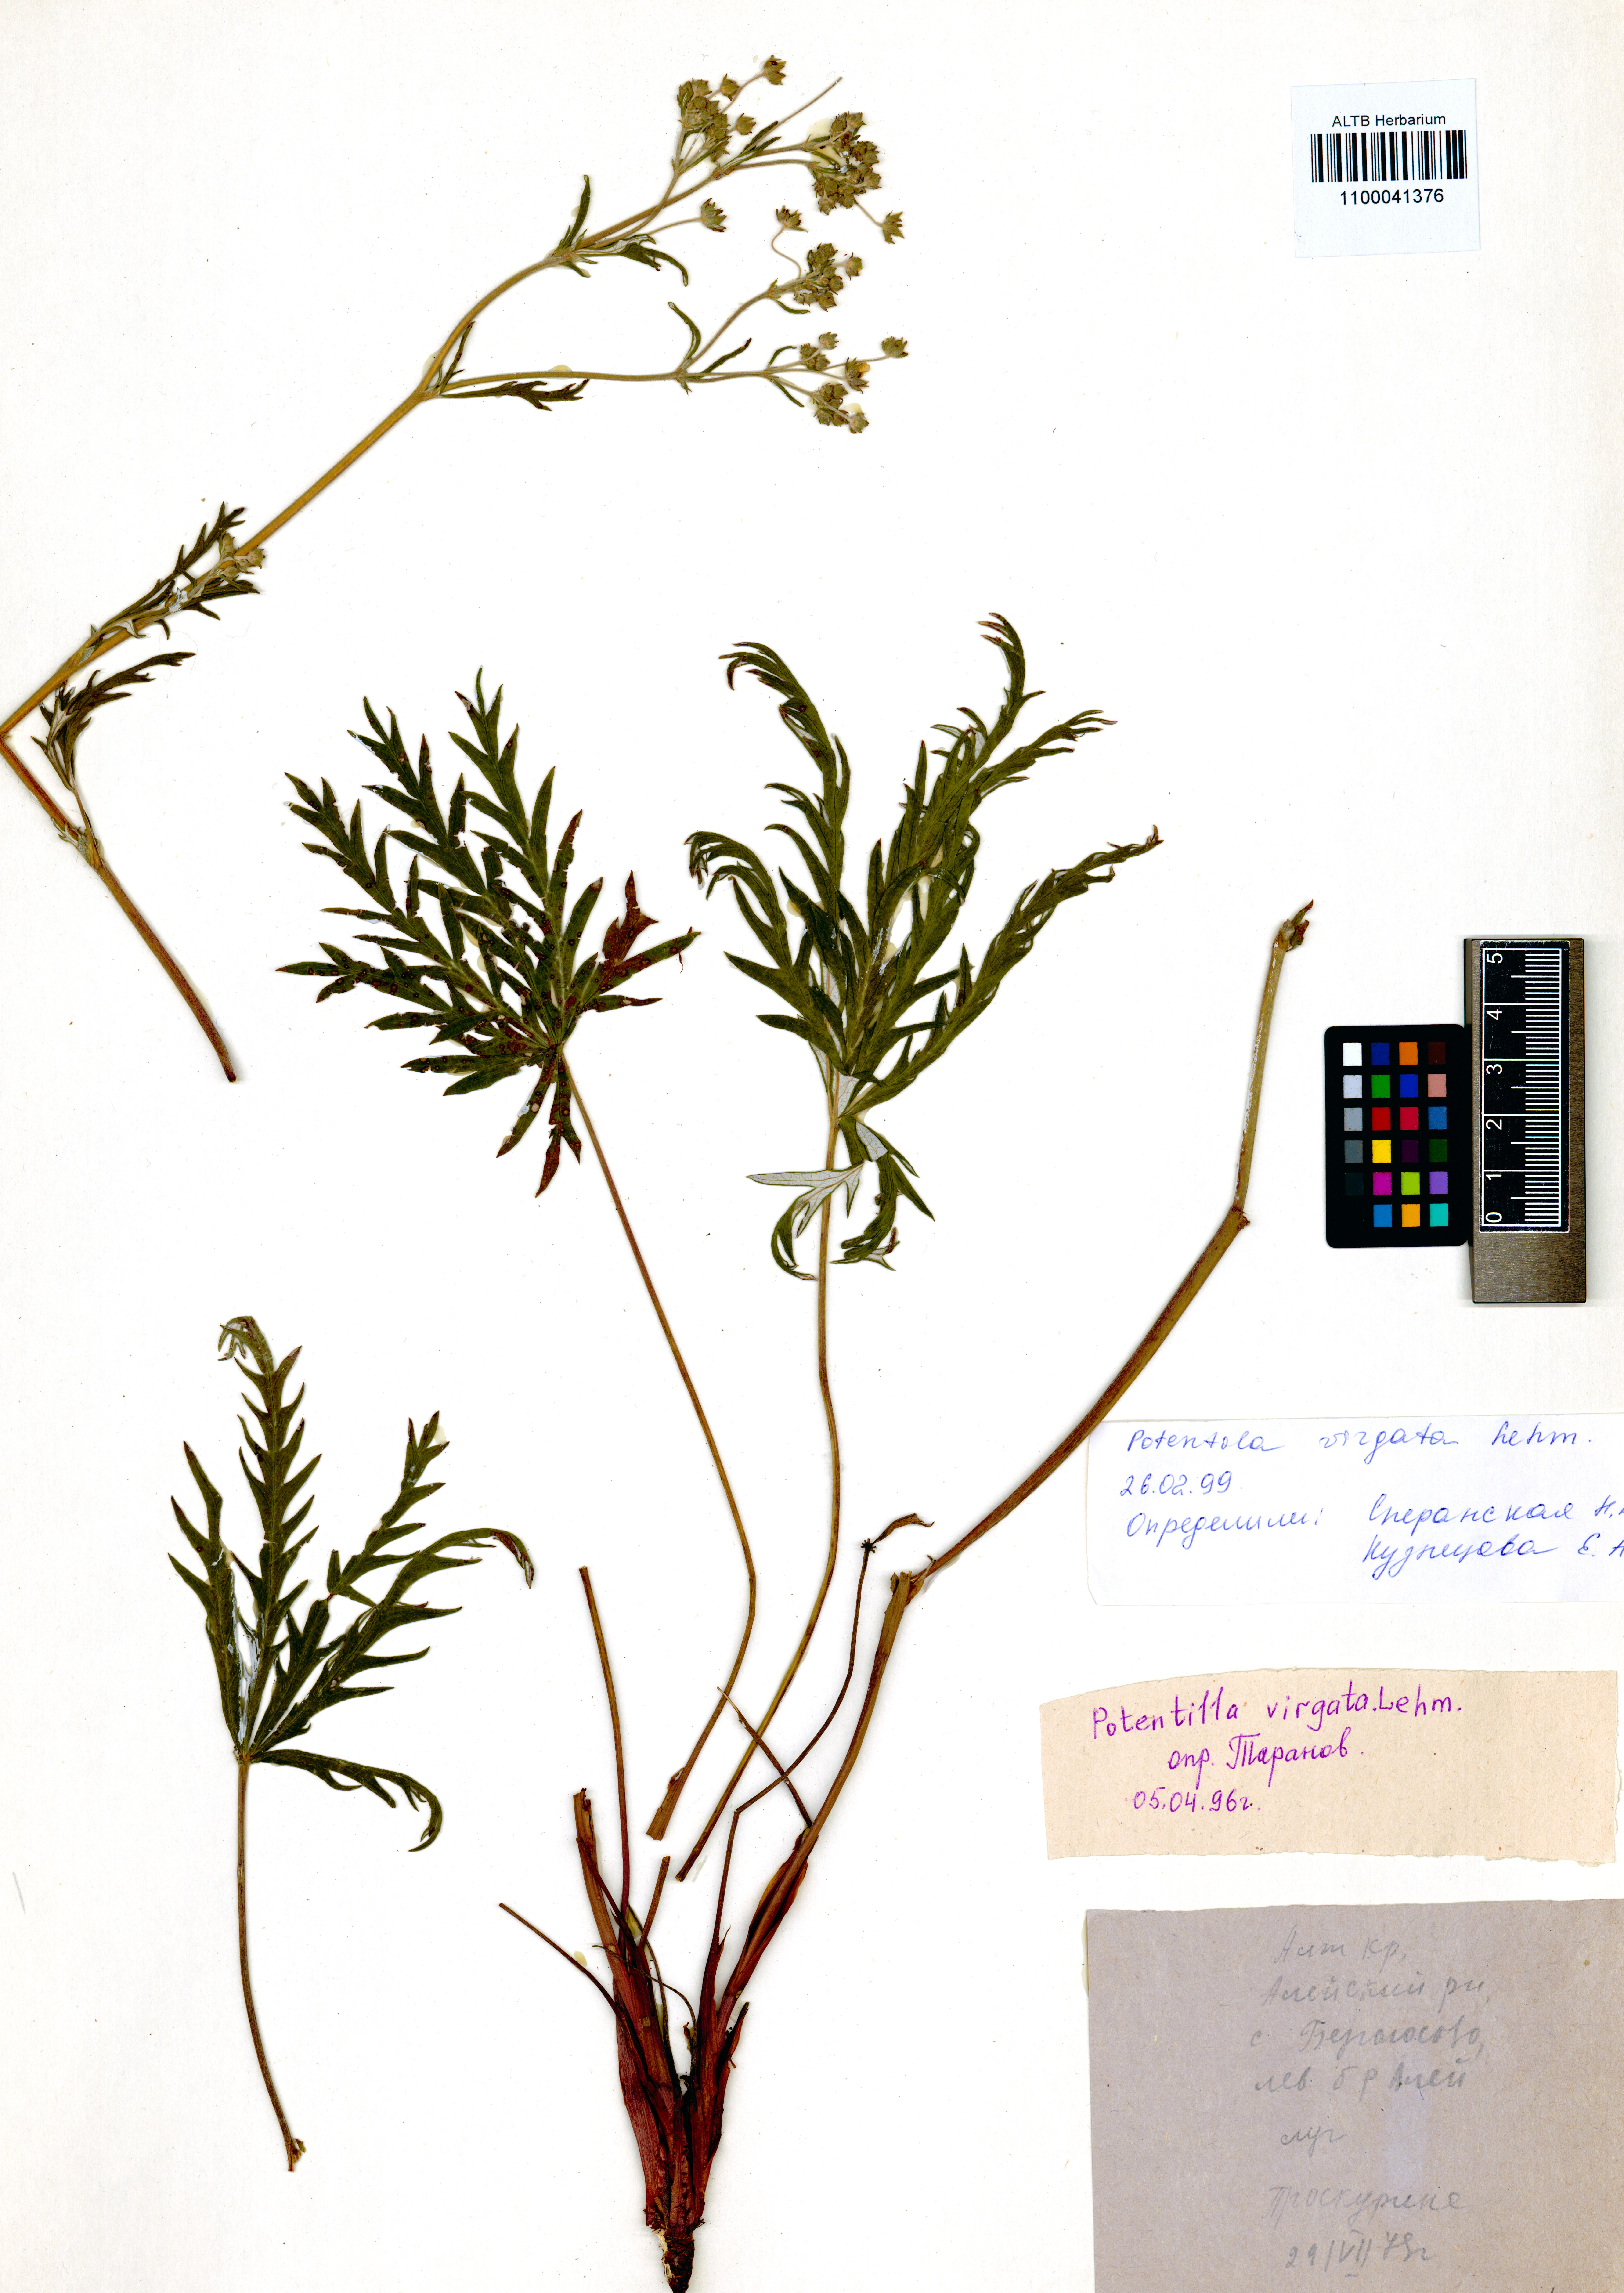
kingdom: Plantae
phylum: Tracheophyta
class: Magnoliopsida
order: Rosales
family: Rosaceae
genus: Potentilla
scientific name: Potentilla virgata
